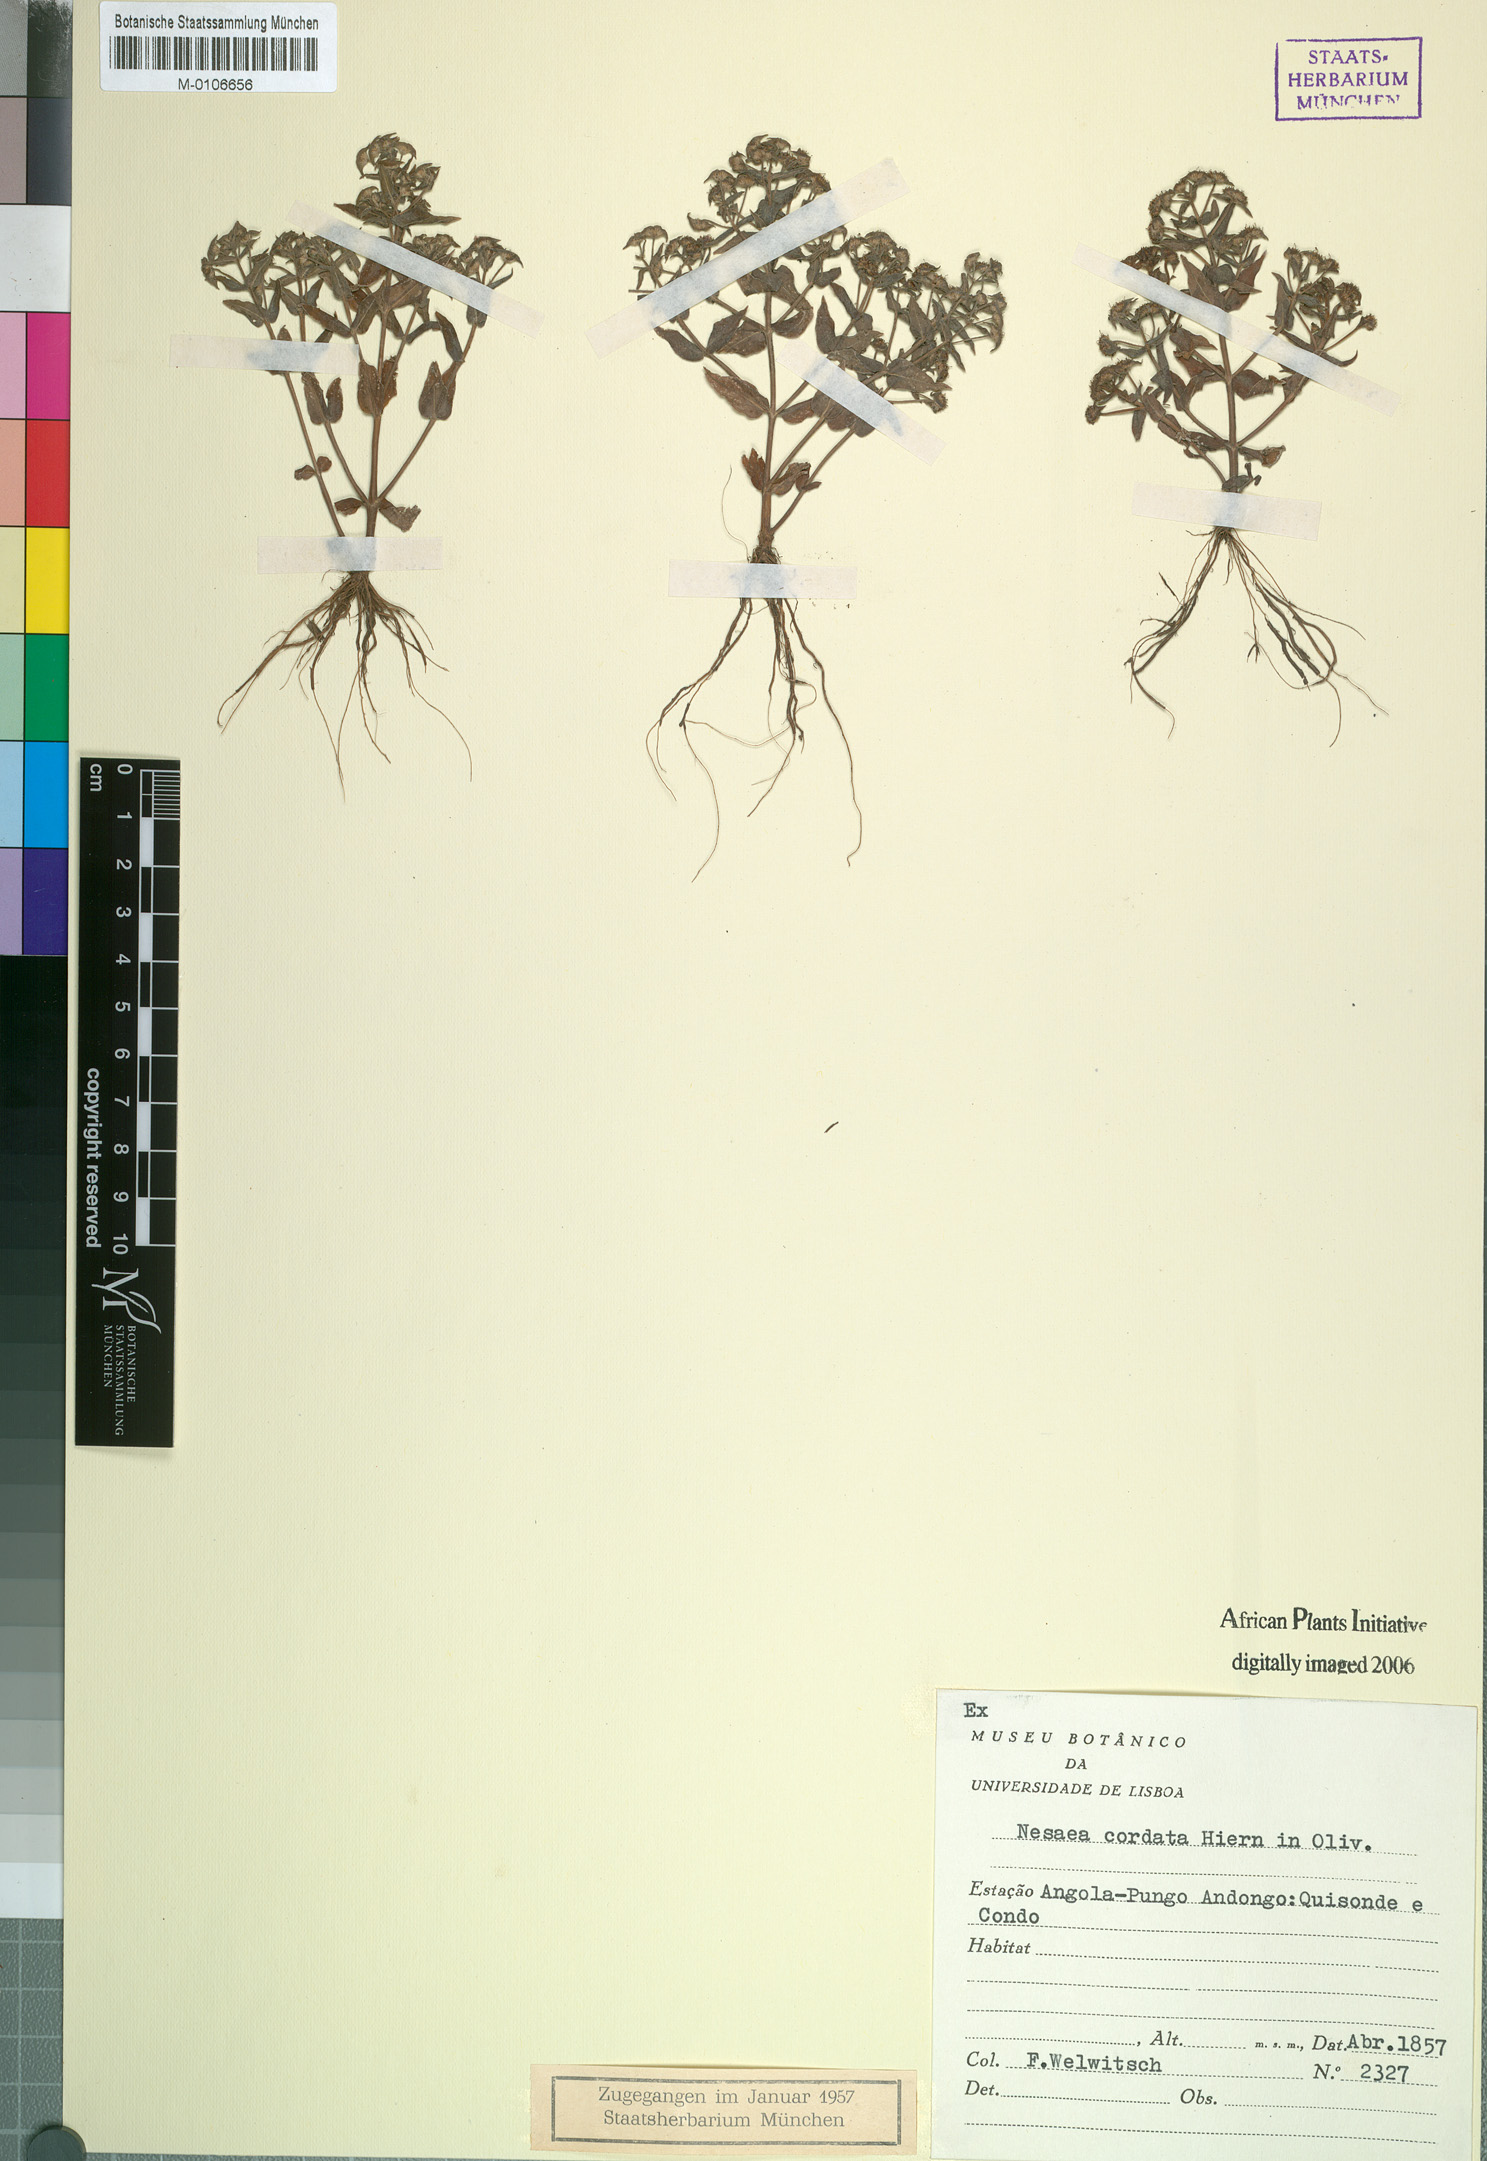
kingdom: Plantae
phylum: Tracheophyta
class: Magnoliopsida
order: Myrtales
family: Lythraceae
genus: Ammannia
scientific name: Ammannia involucrata
